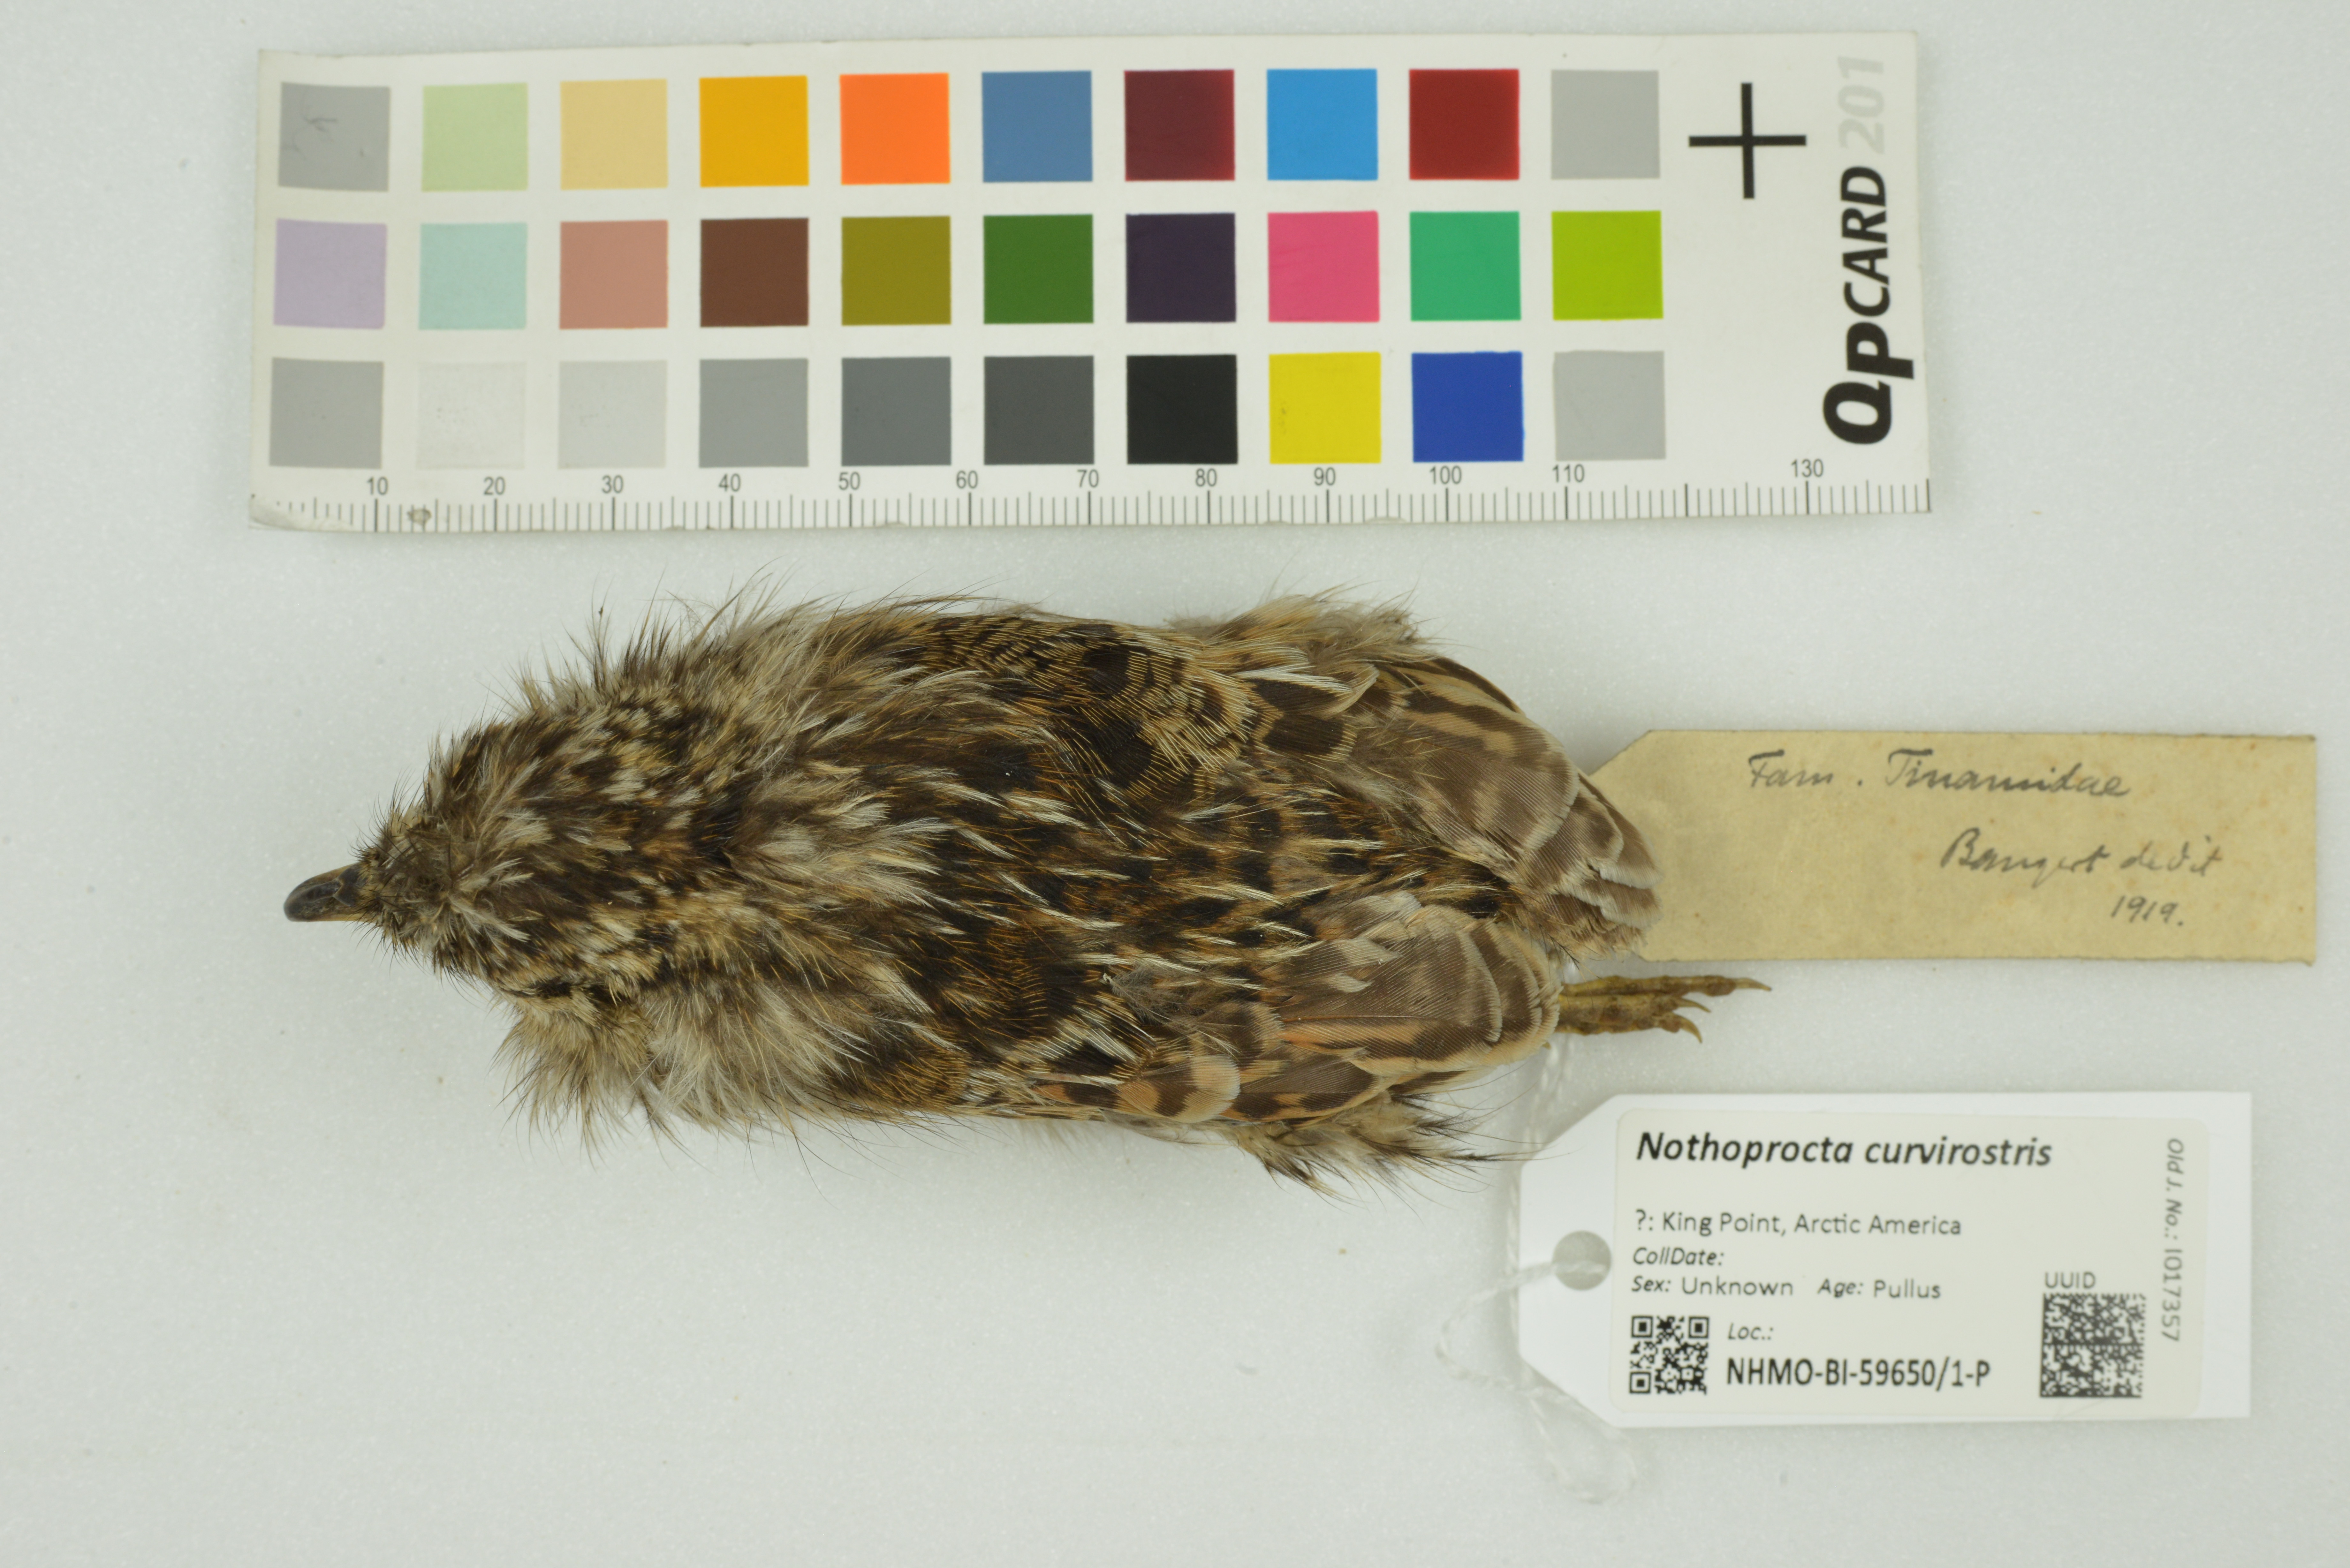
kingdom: Animalia
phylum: Chordata
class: Aves
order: Tinamiformes
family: Tinamidae
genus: Nothoprocta
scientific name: Nothoprocta curvirostris
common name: Curve-billed tinamou
